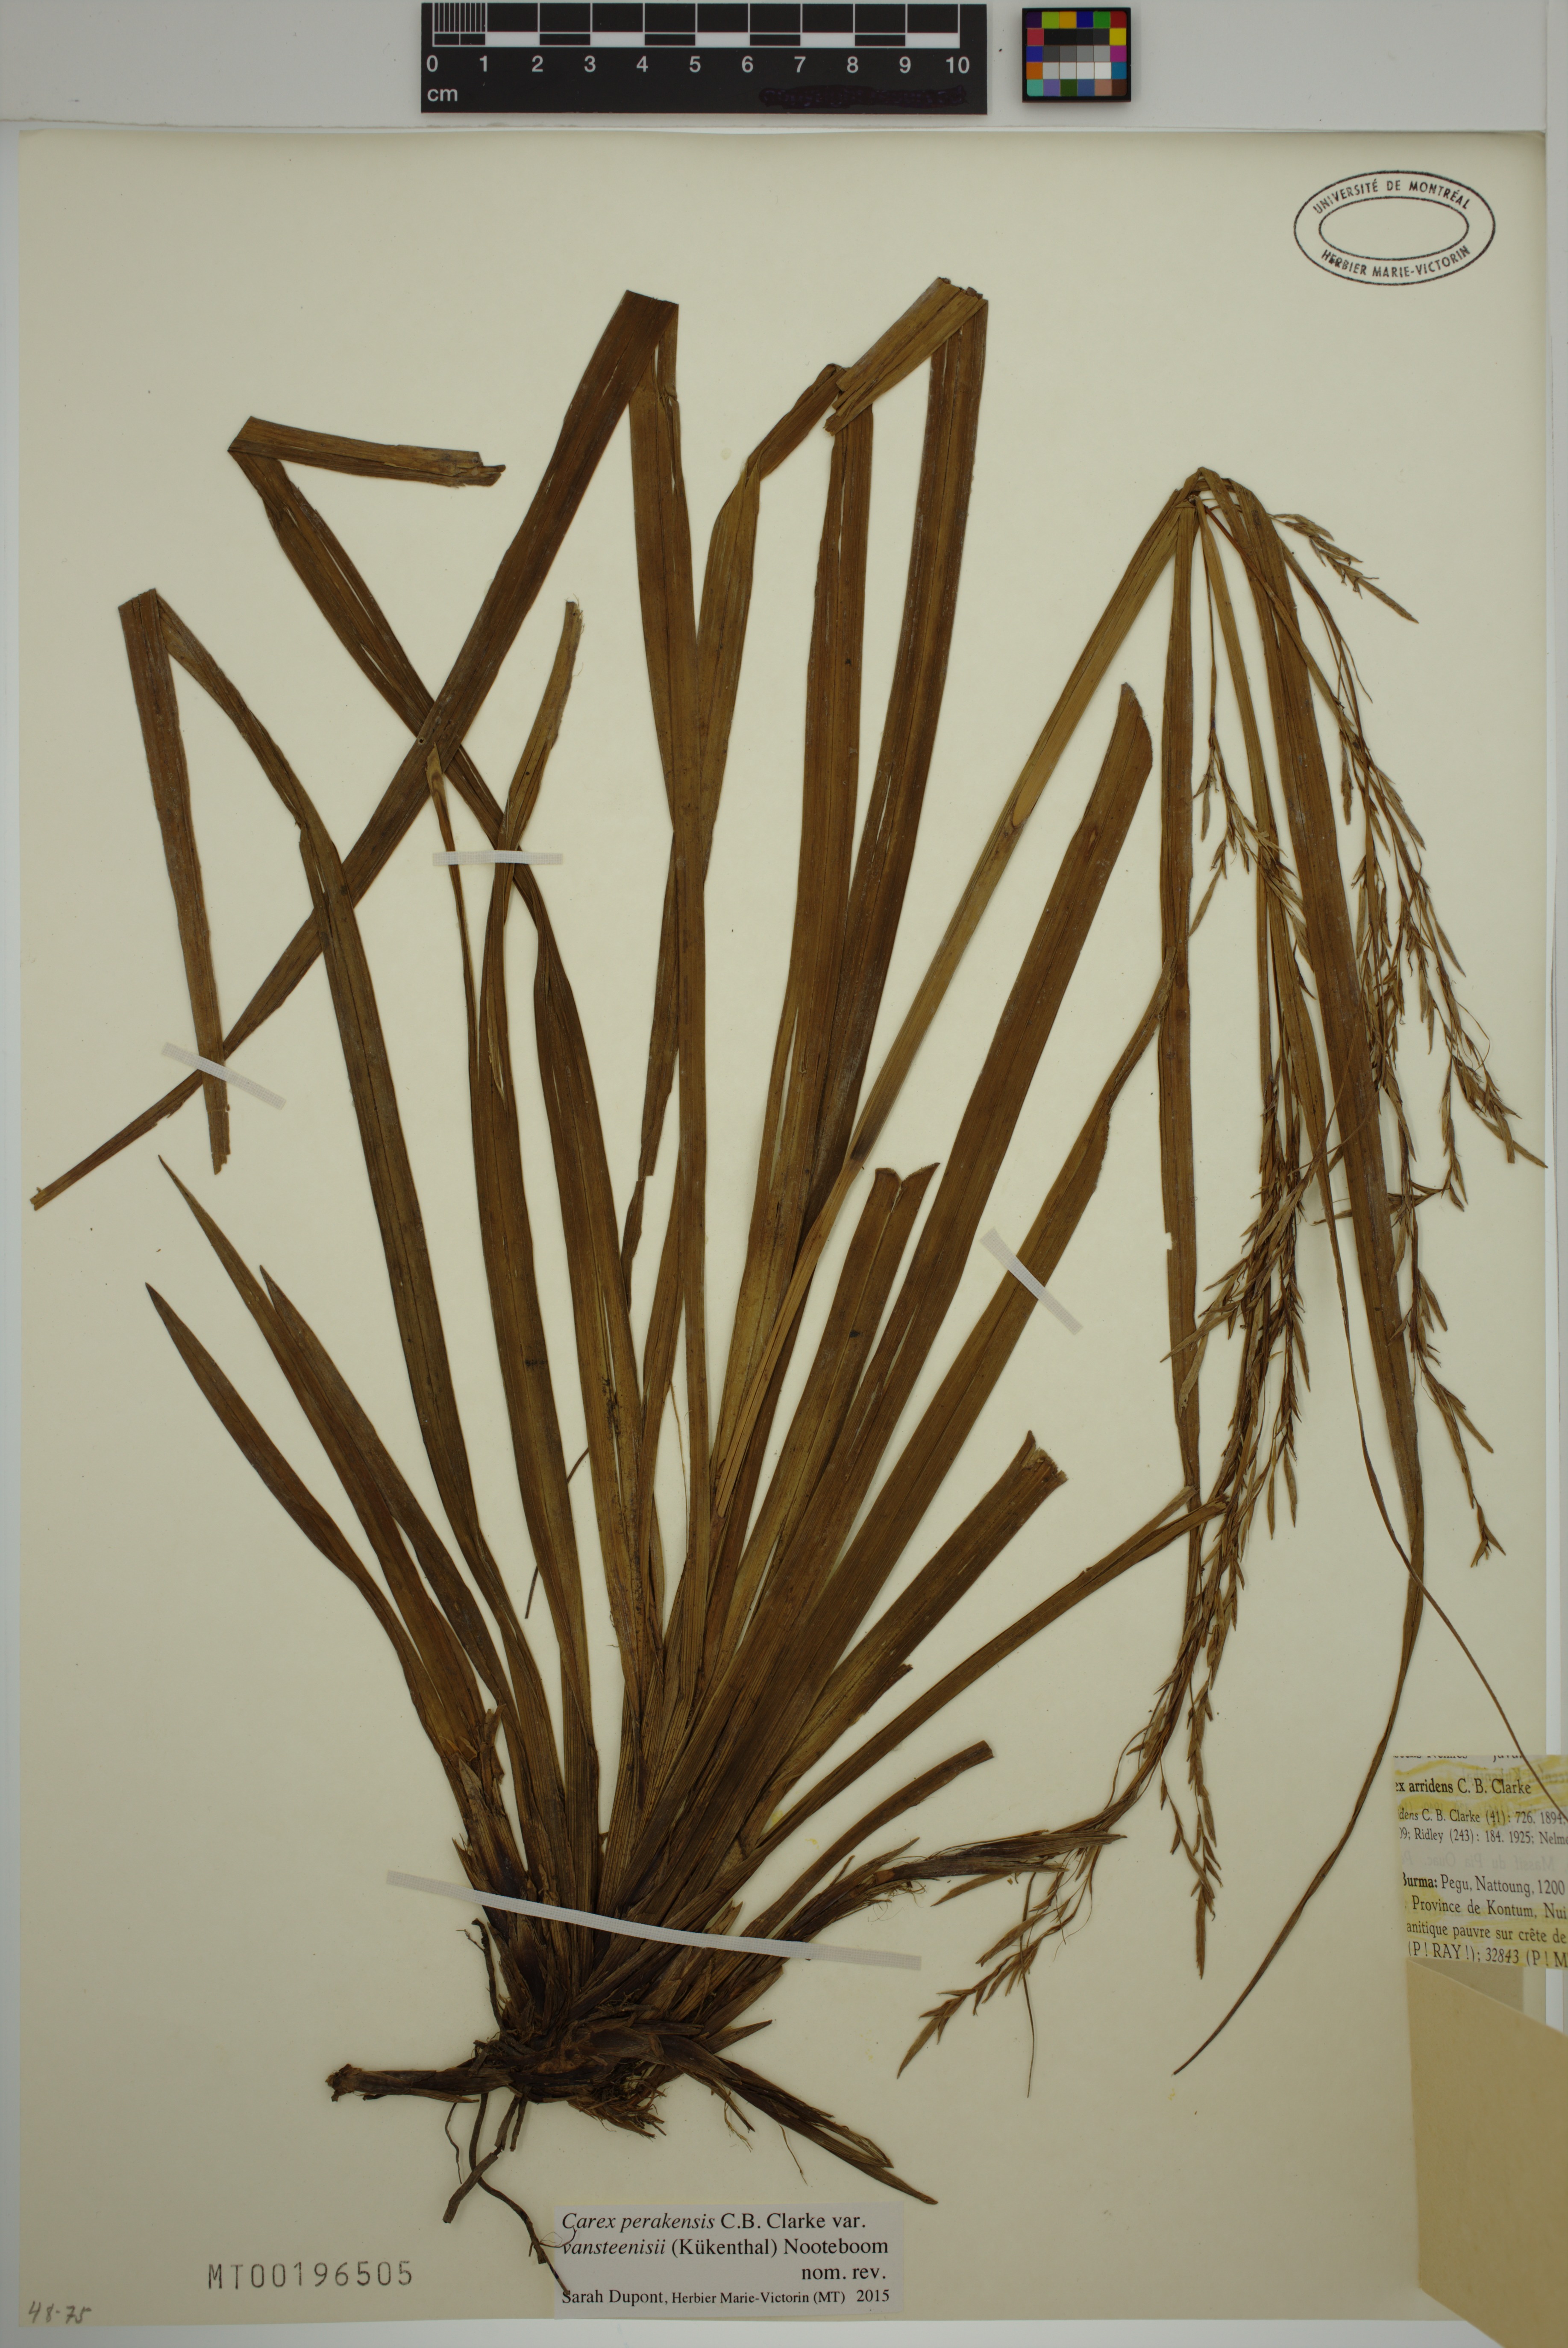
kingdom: Plantae
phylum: Tracheophyta
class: Liliopsida
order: Poales
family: Cyperaceae
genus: Carex
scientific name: Carex perakensis
